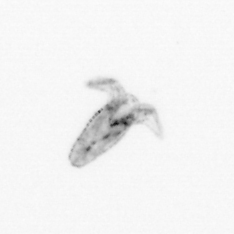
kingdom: Animalia
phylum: Arthropoda
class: Copepoda
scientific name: Copepoda
